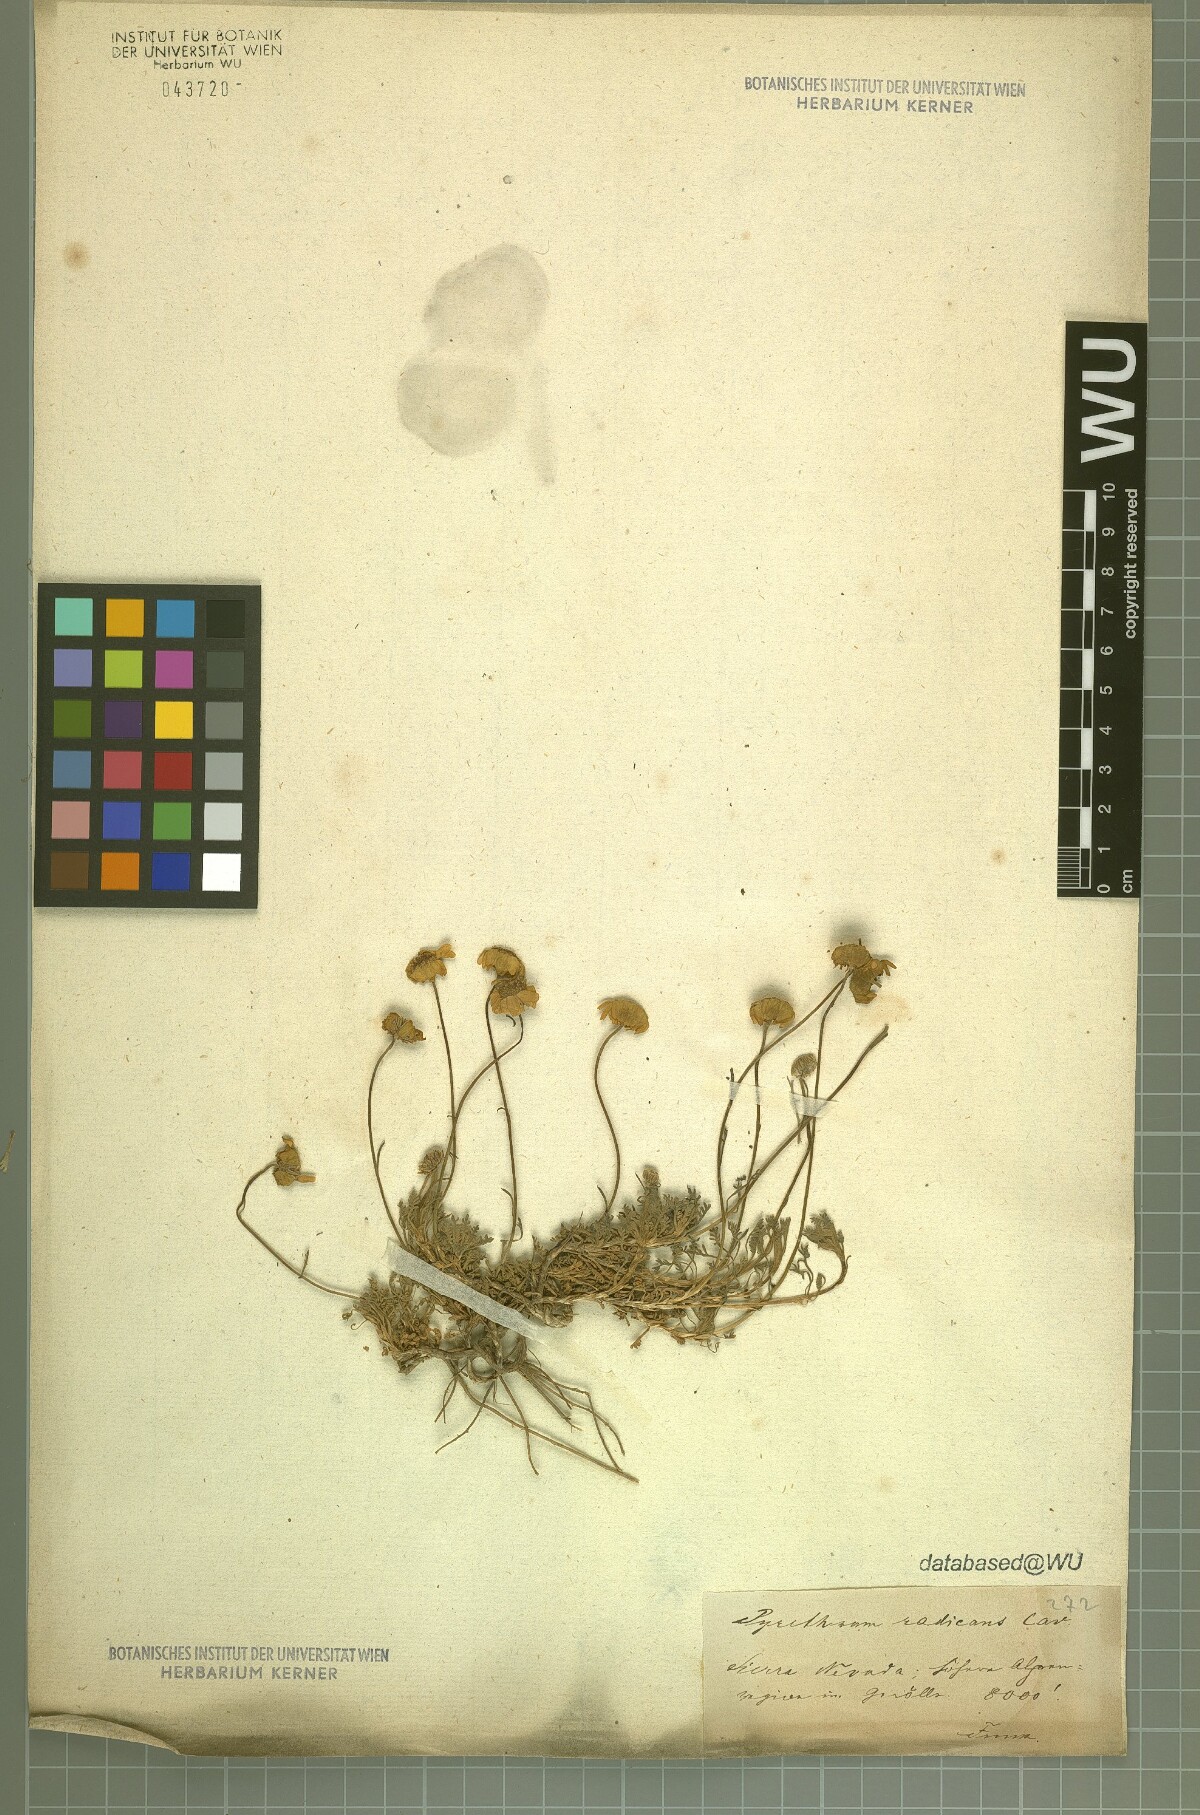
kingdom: Plantae
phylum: Tracheophyta
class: Magnoliopsida
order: Asterales
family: Asteraceae
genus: Leucanthemopsis
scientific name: Leucanthemopsis pectinata
